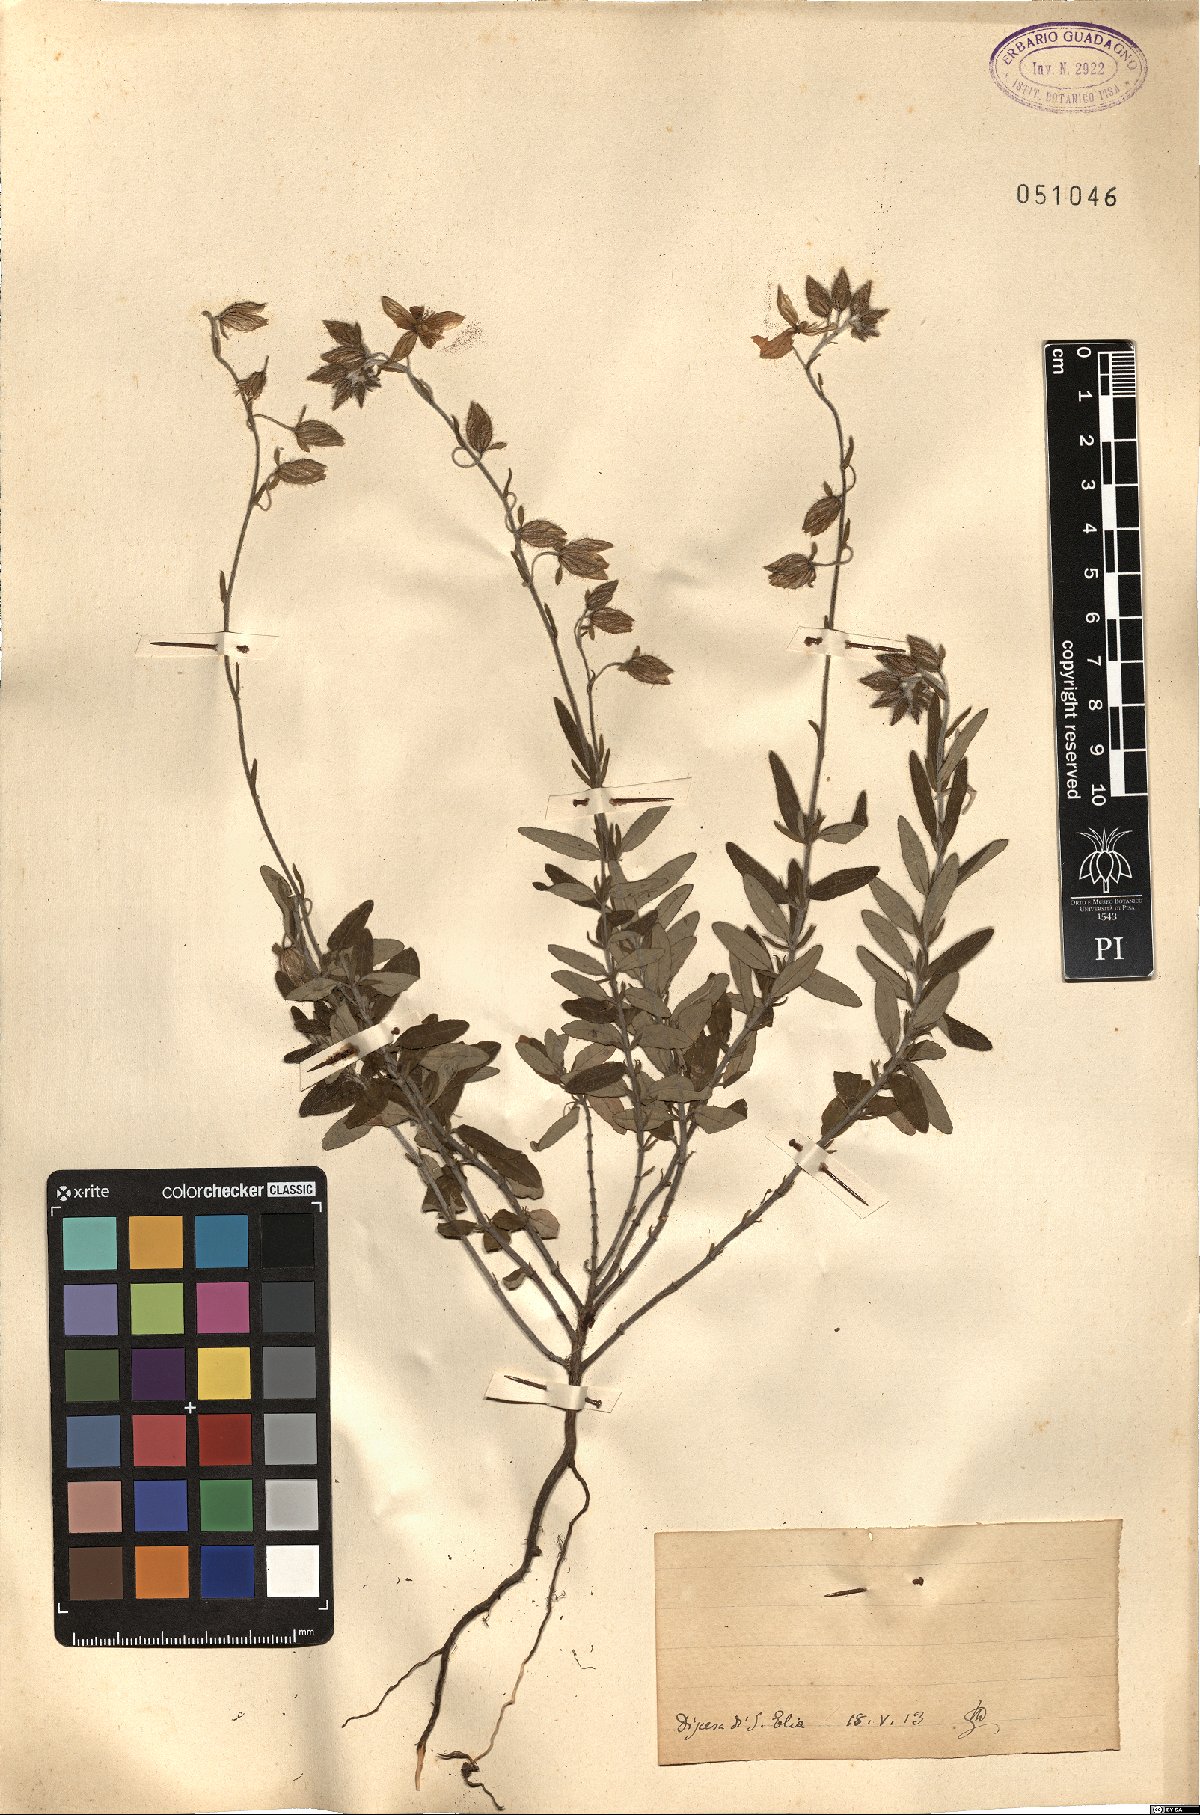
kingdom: Plantae
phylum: Tracheophyta
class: Magnoliopsida
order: Malvales
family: Cistaceae
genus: Helianthemum
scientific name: Helianthemum
